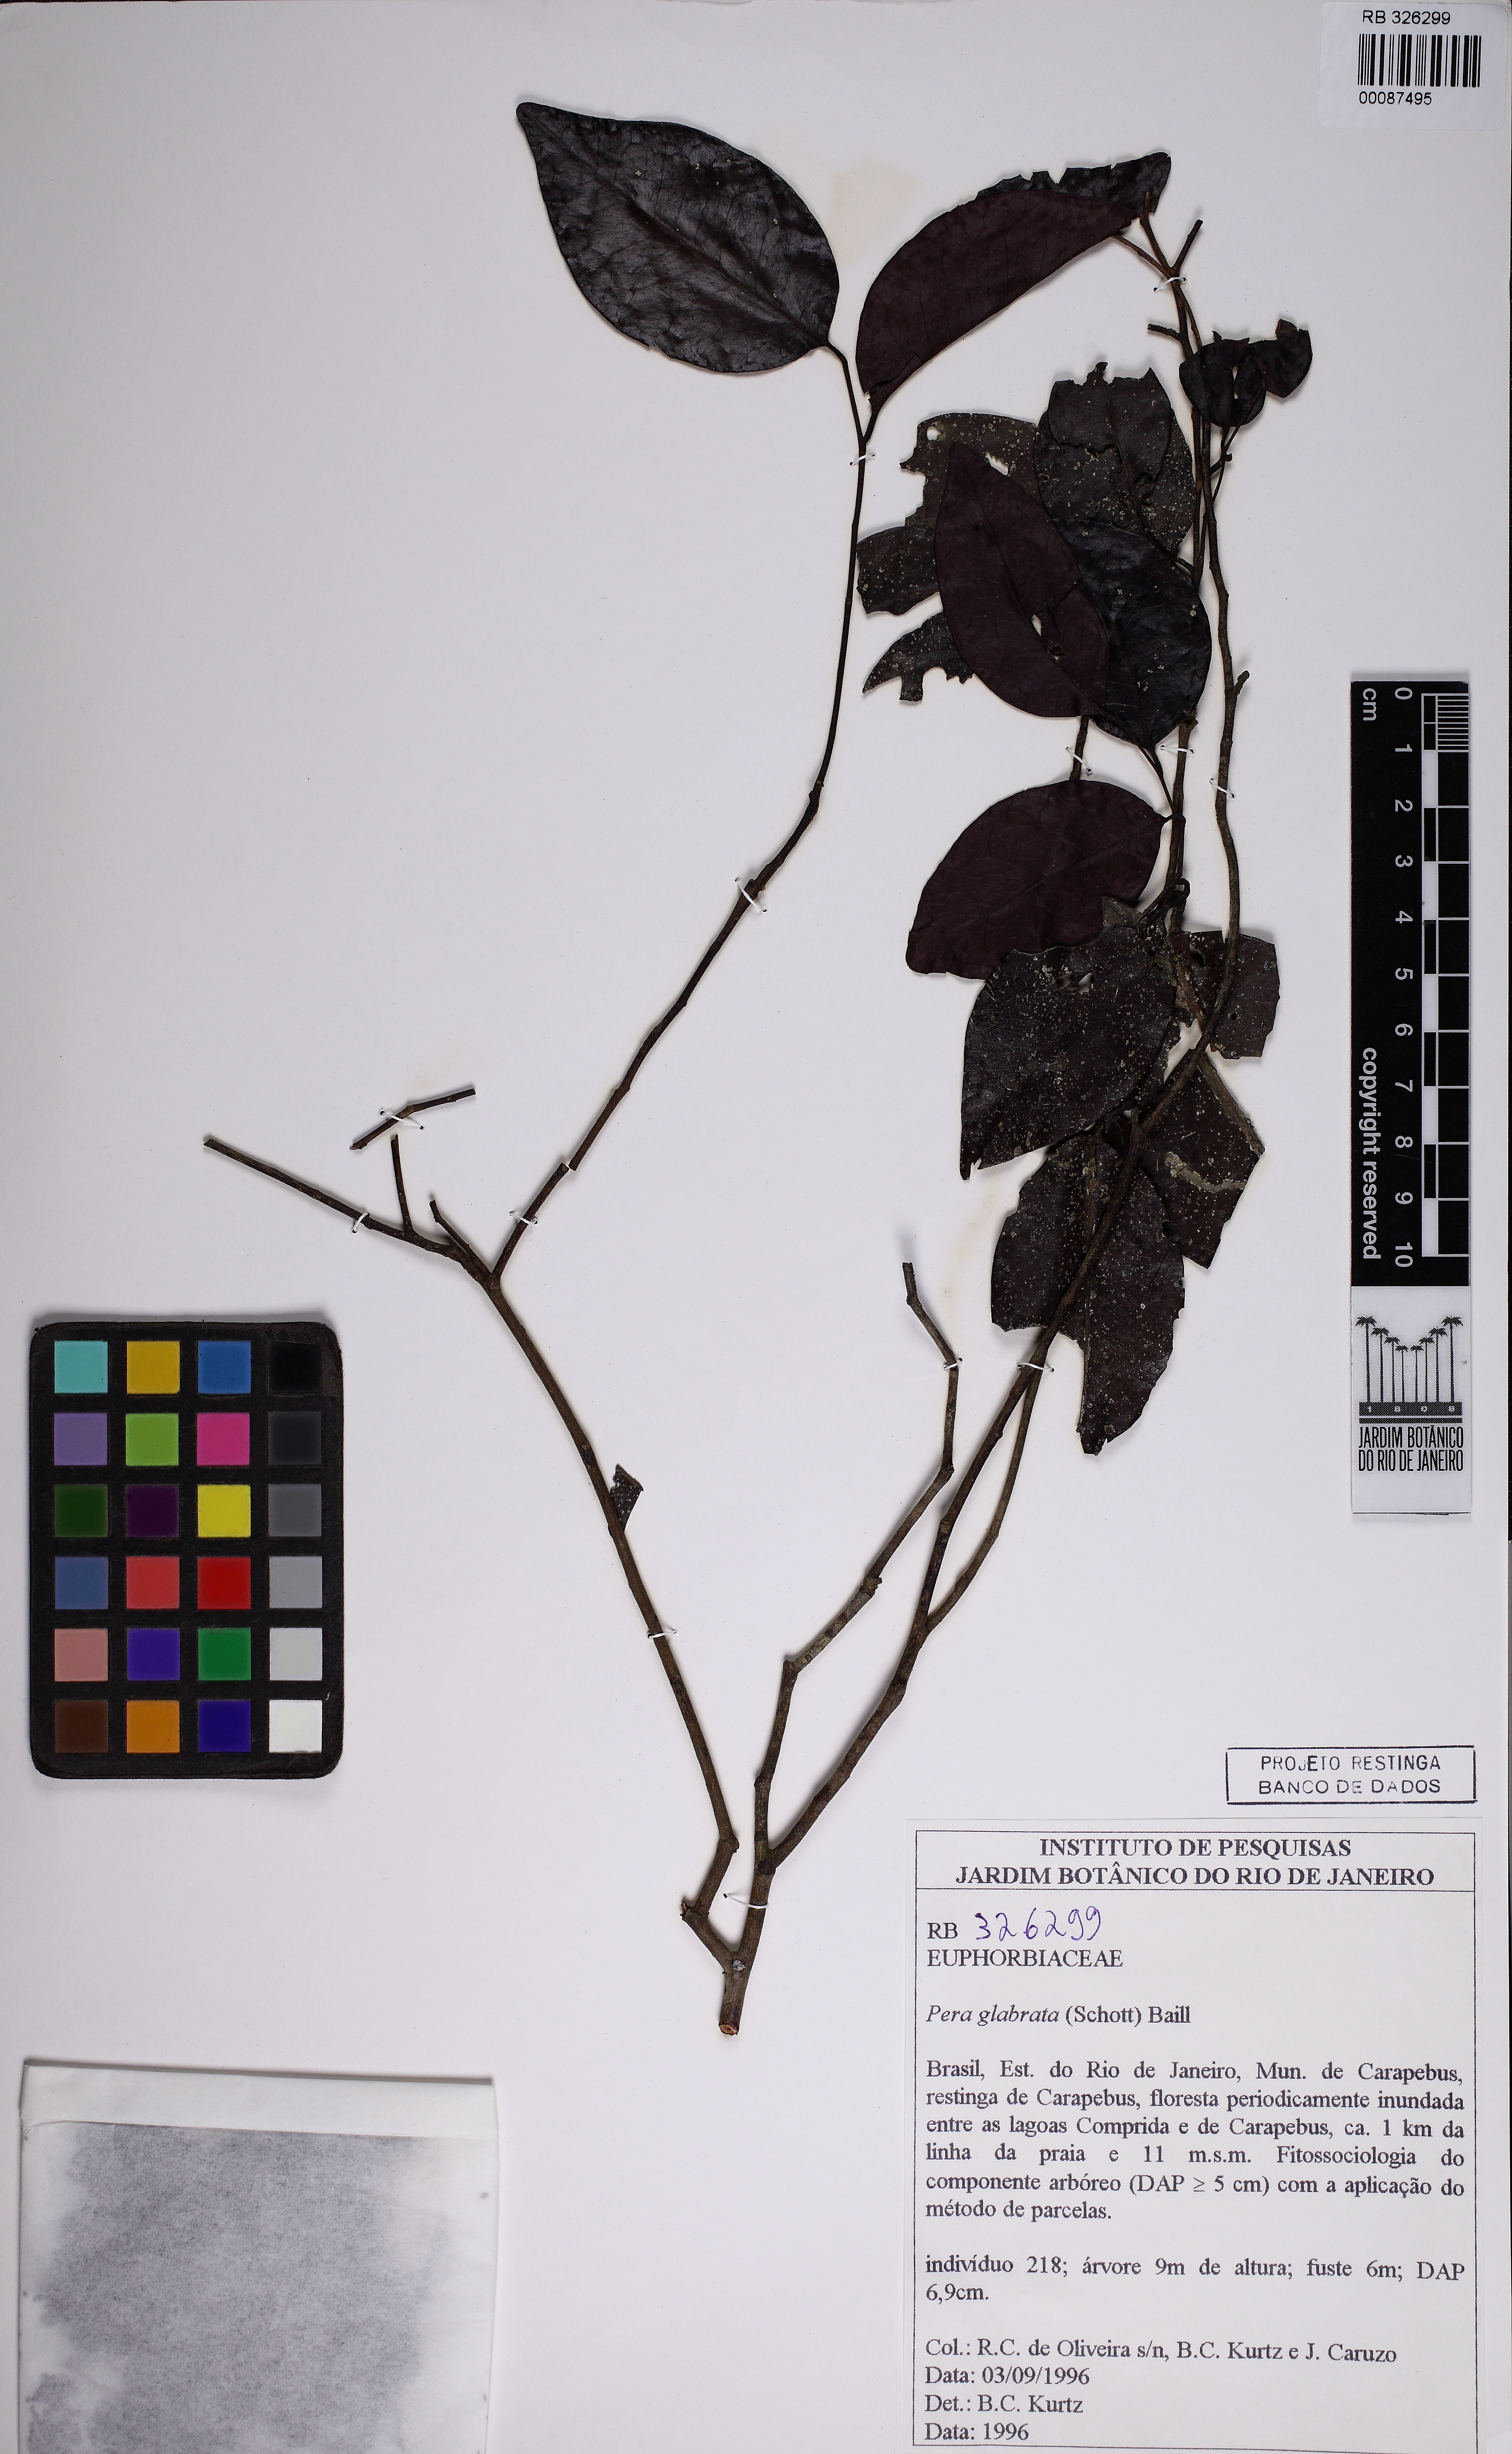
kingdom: Plantae
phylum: Tracheophyta
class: Magnoliopsida
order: Malpighiales
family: Peraceae
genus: Pera
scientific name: Pera glabrata
